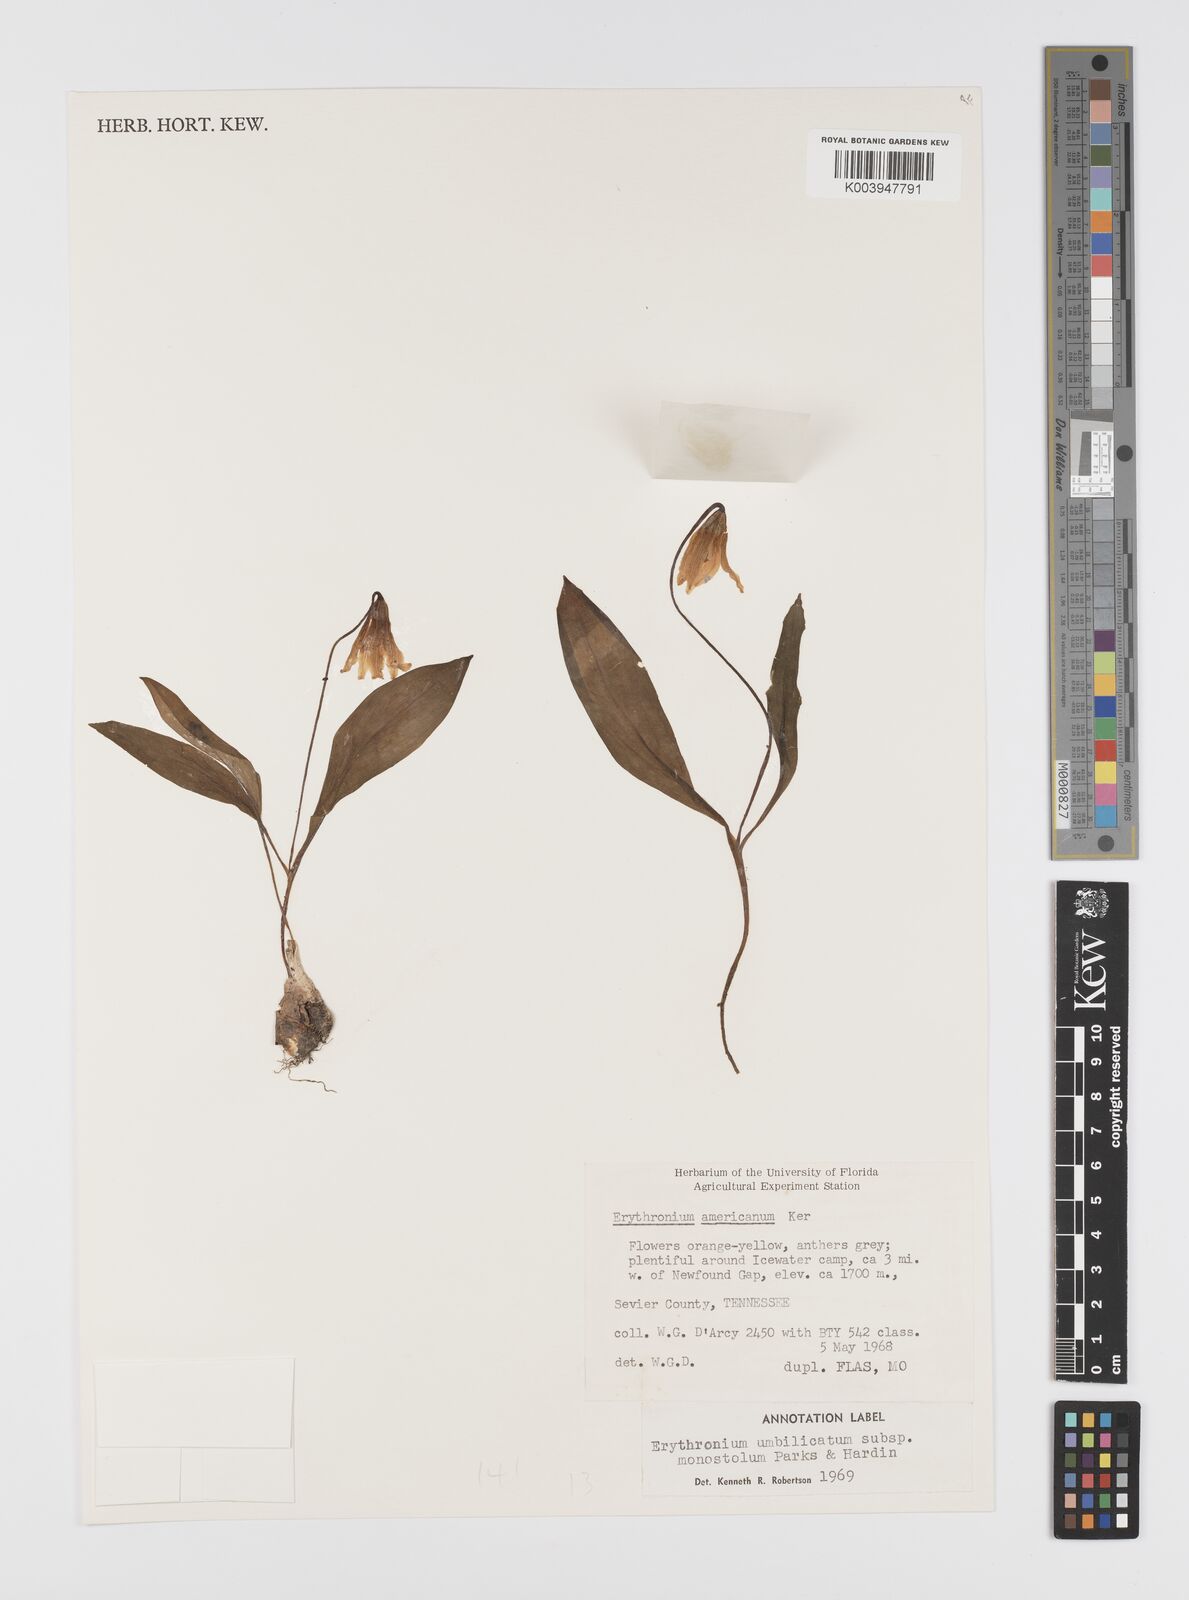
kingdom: Plantae
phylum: Tracheophyta
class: Liliopsida
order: Liliales
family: Liliaceae
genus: Erythronium
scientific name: Erythronium umbilicatum
